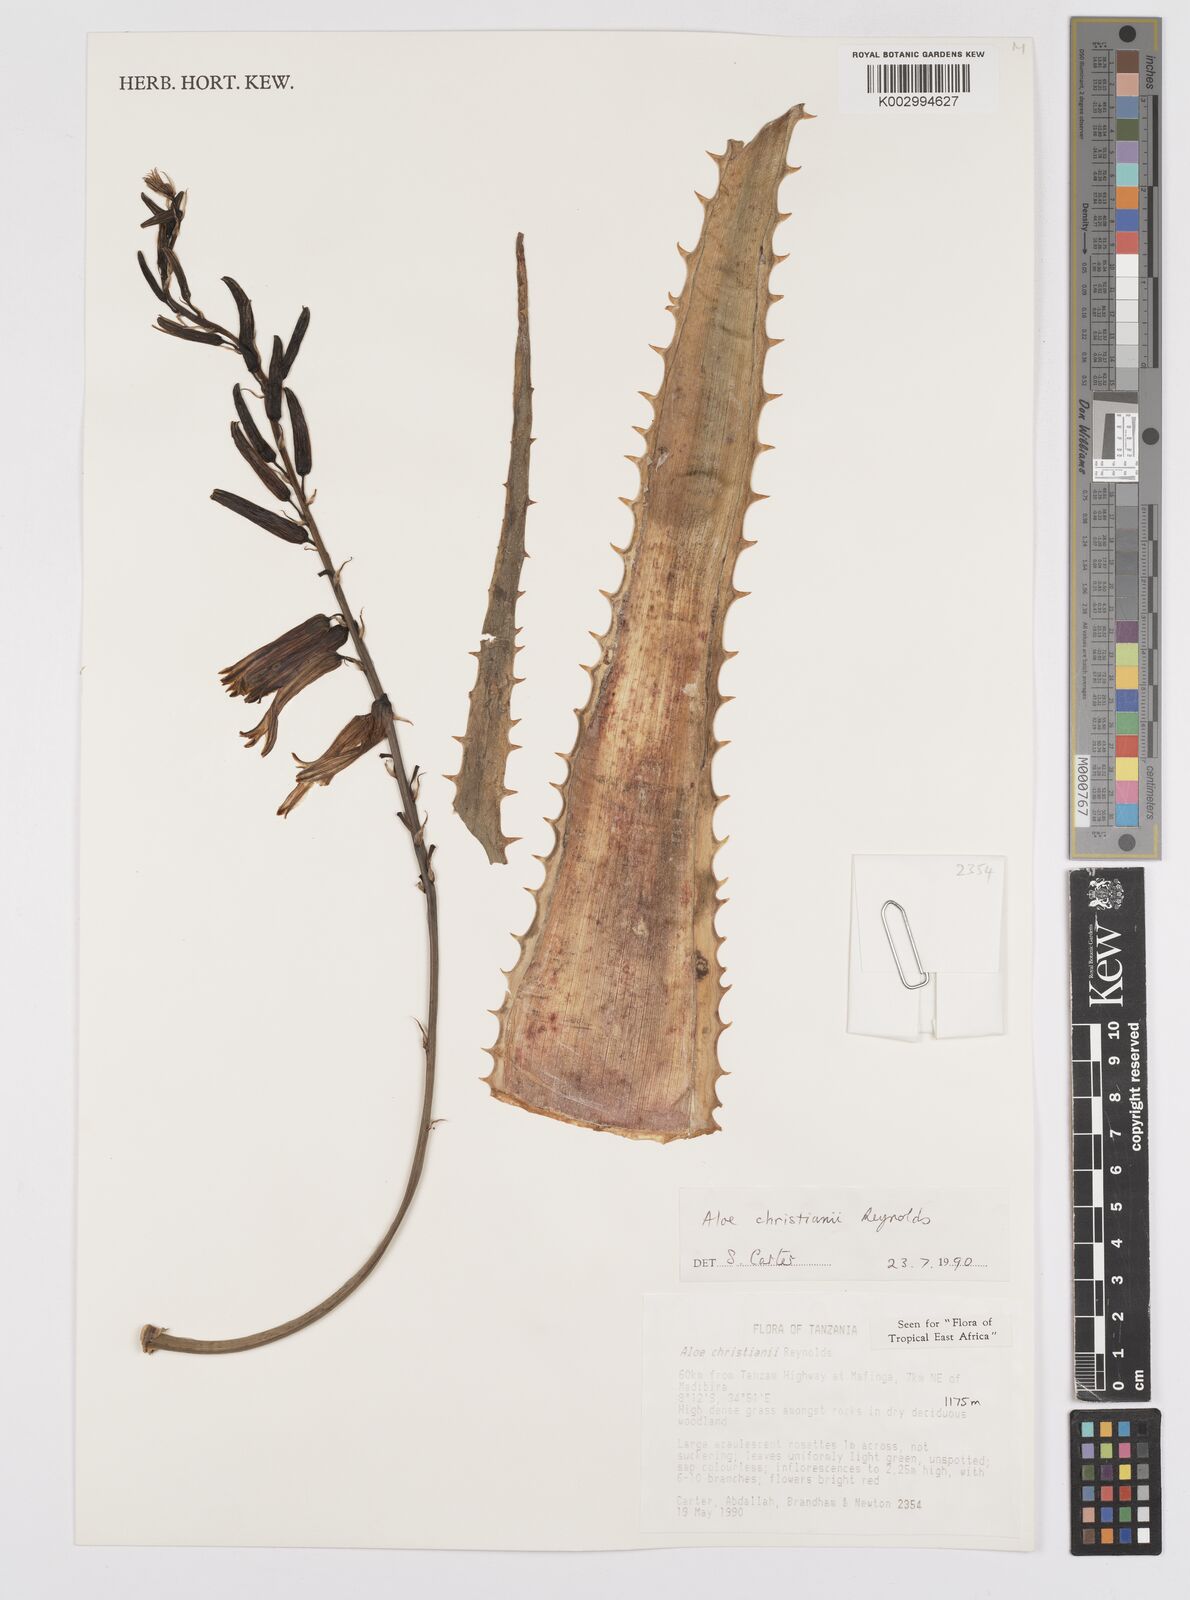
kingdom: Plantae
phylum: Tracheophyta
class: Liliopsida
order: Asparagales
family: Asphodelaceae
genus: Aloe
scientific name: Aloe christianii
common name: Basil christian's aloe
